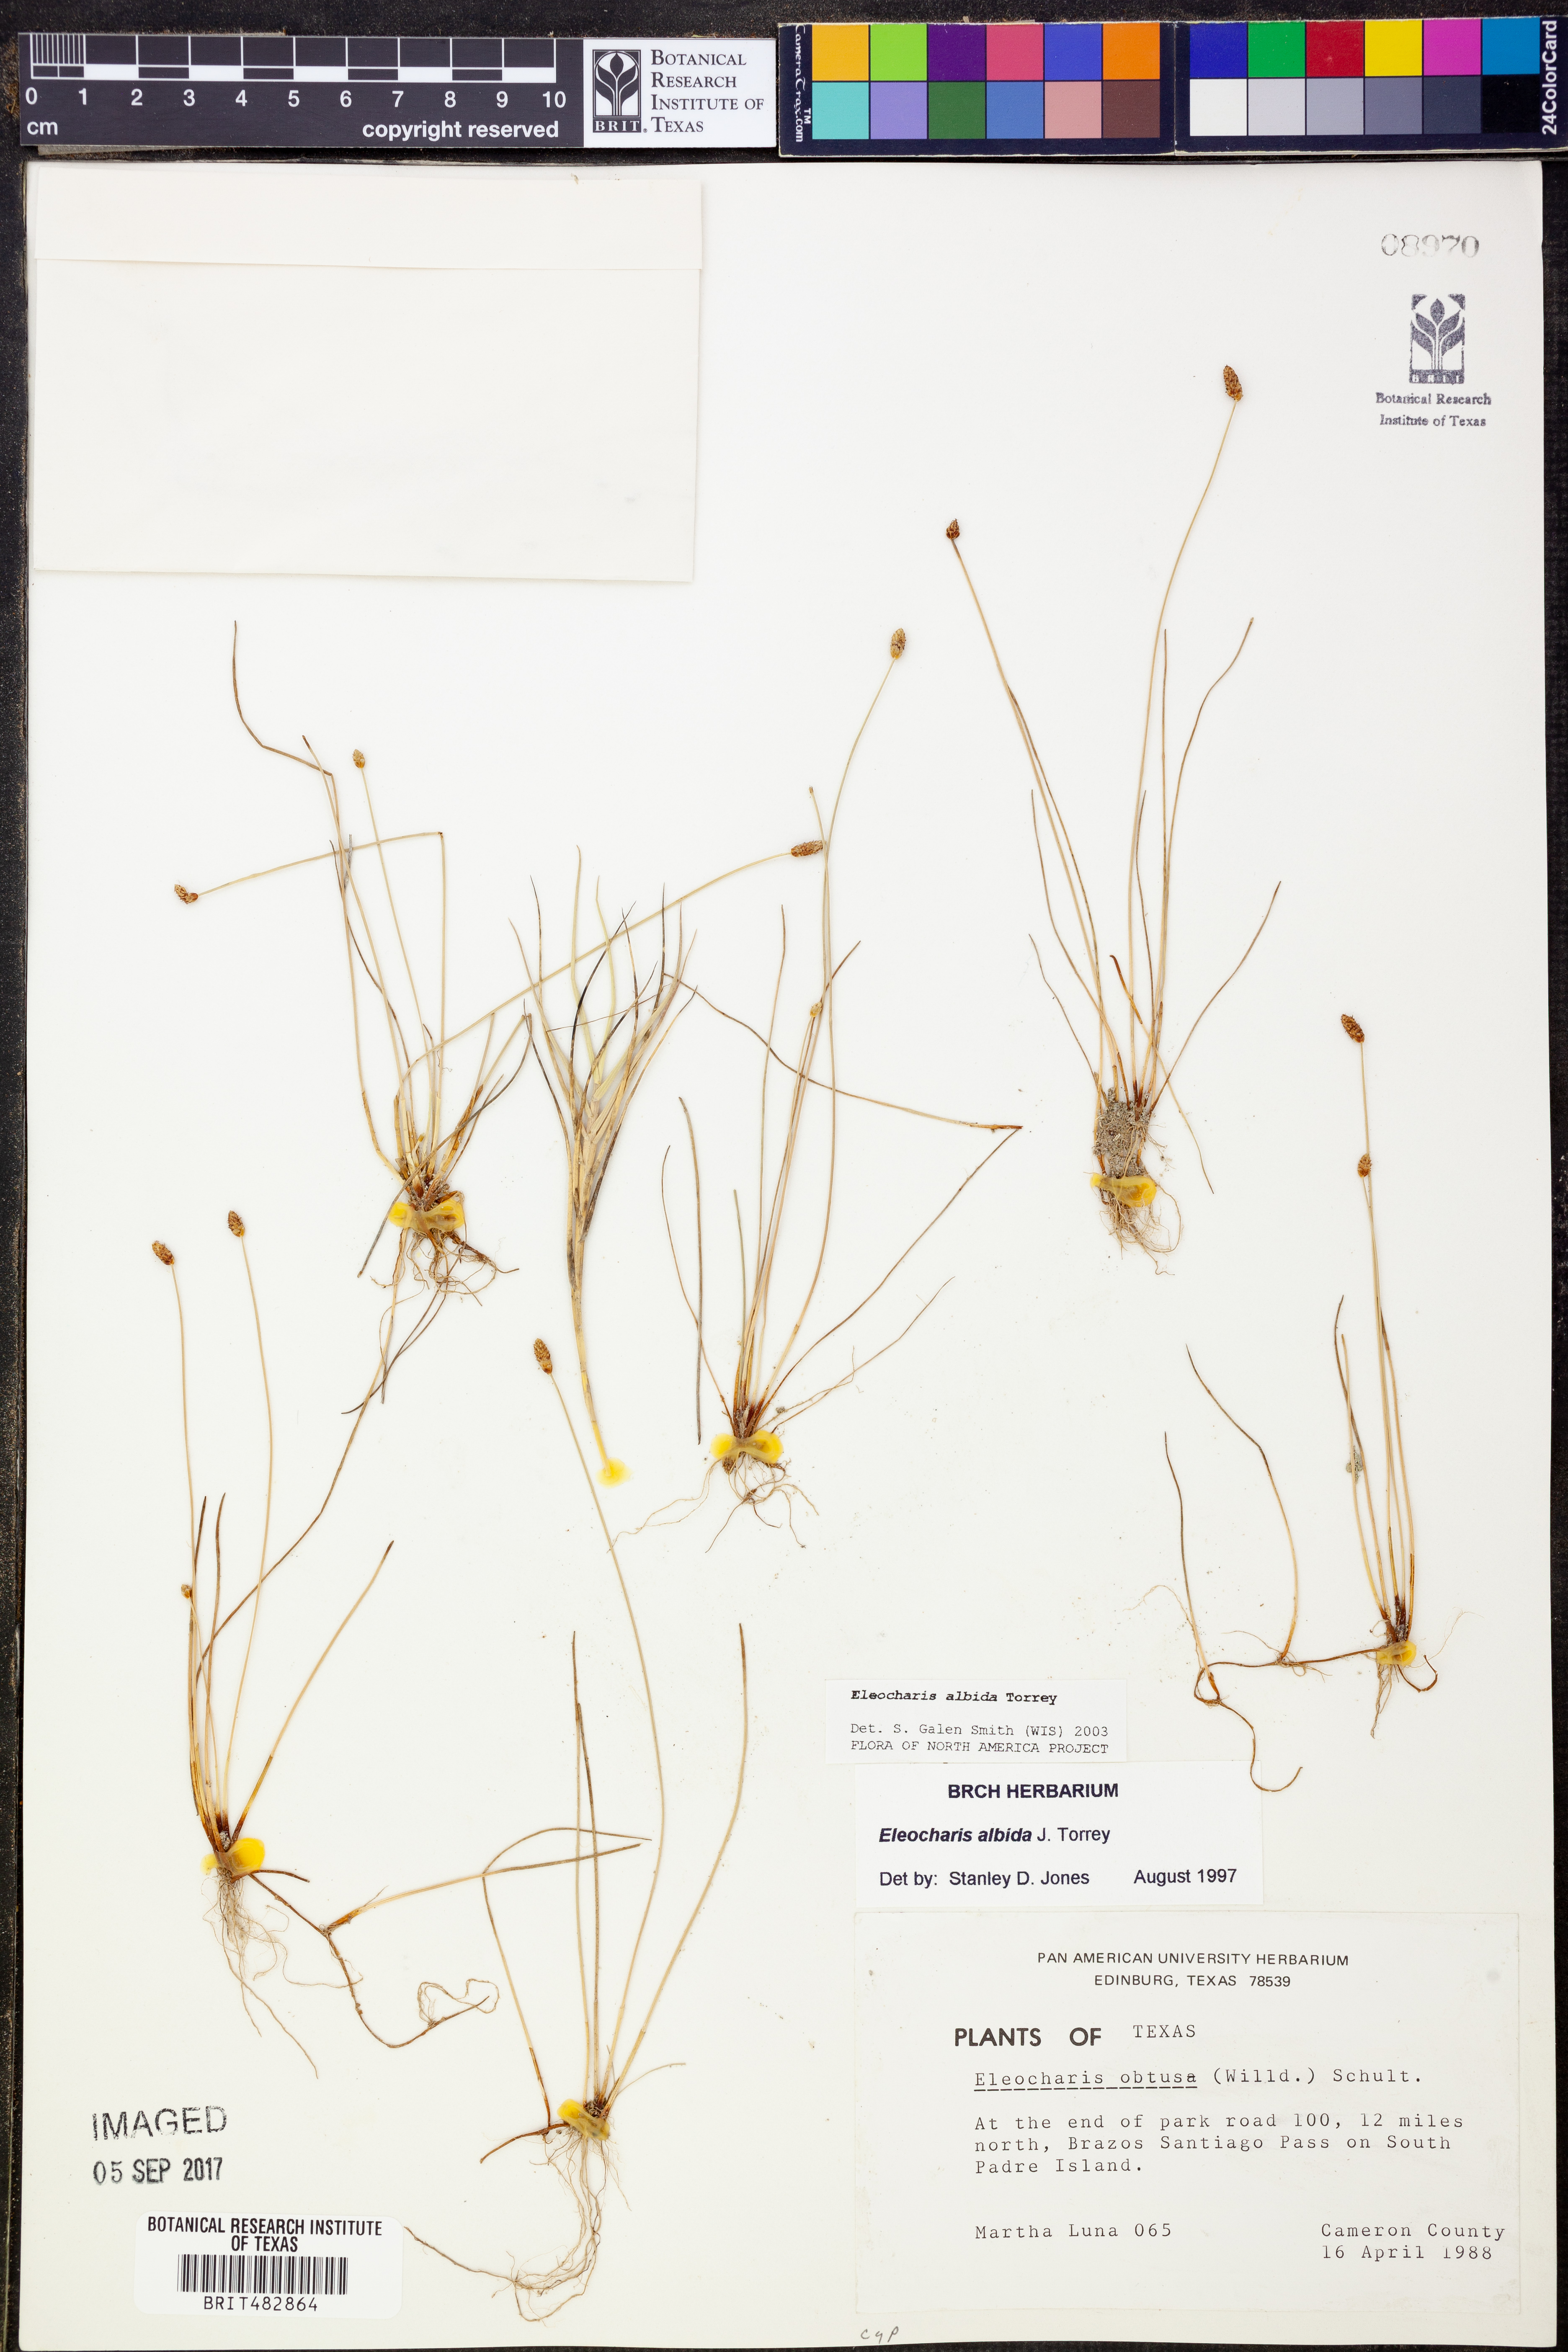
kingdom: Plantae
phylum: Tracheophyta
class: Liliopsida
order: Poales
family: Cyperaceae
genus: Eleocharis
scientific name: Eleocharis albida
